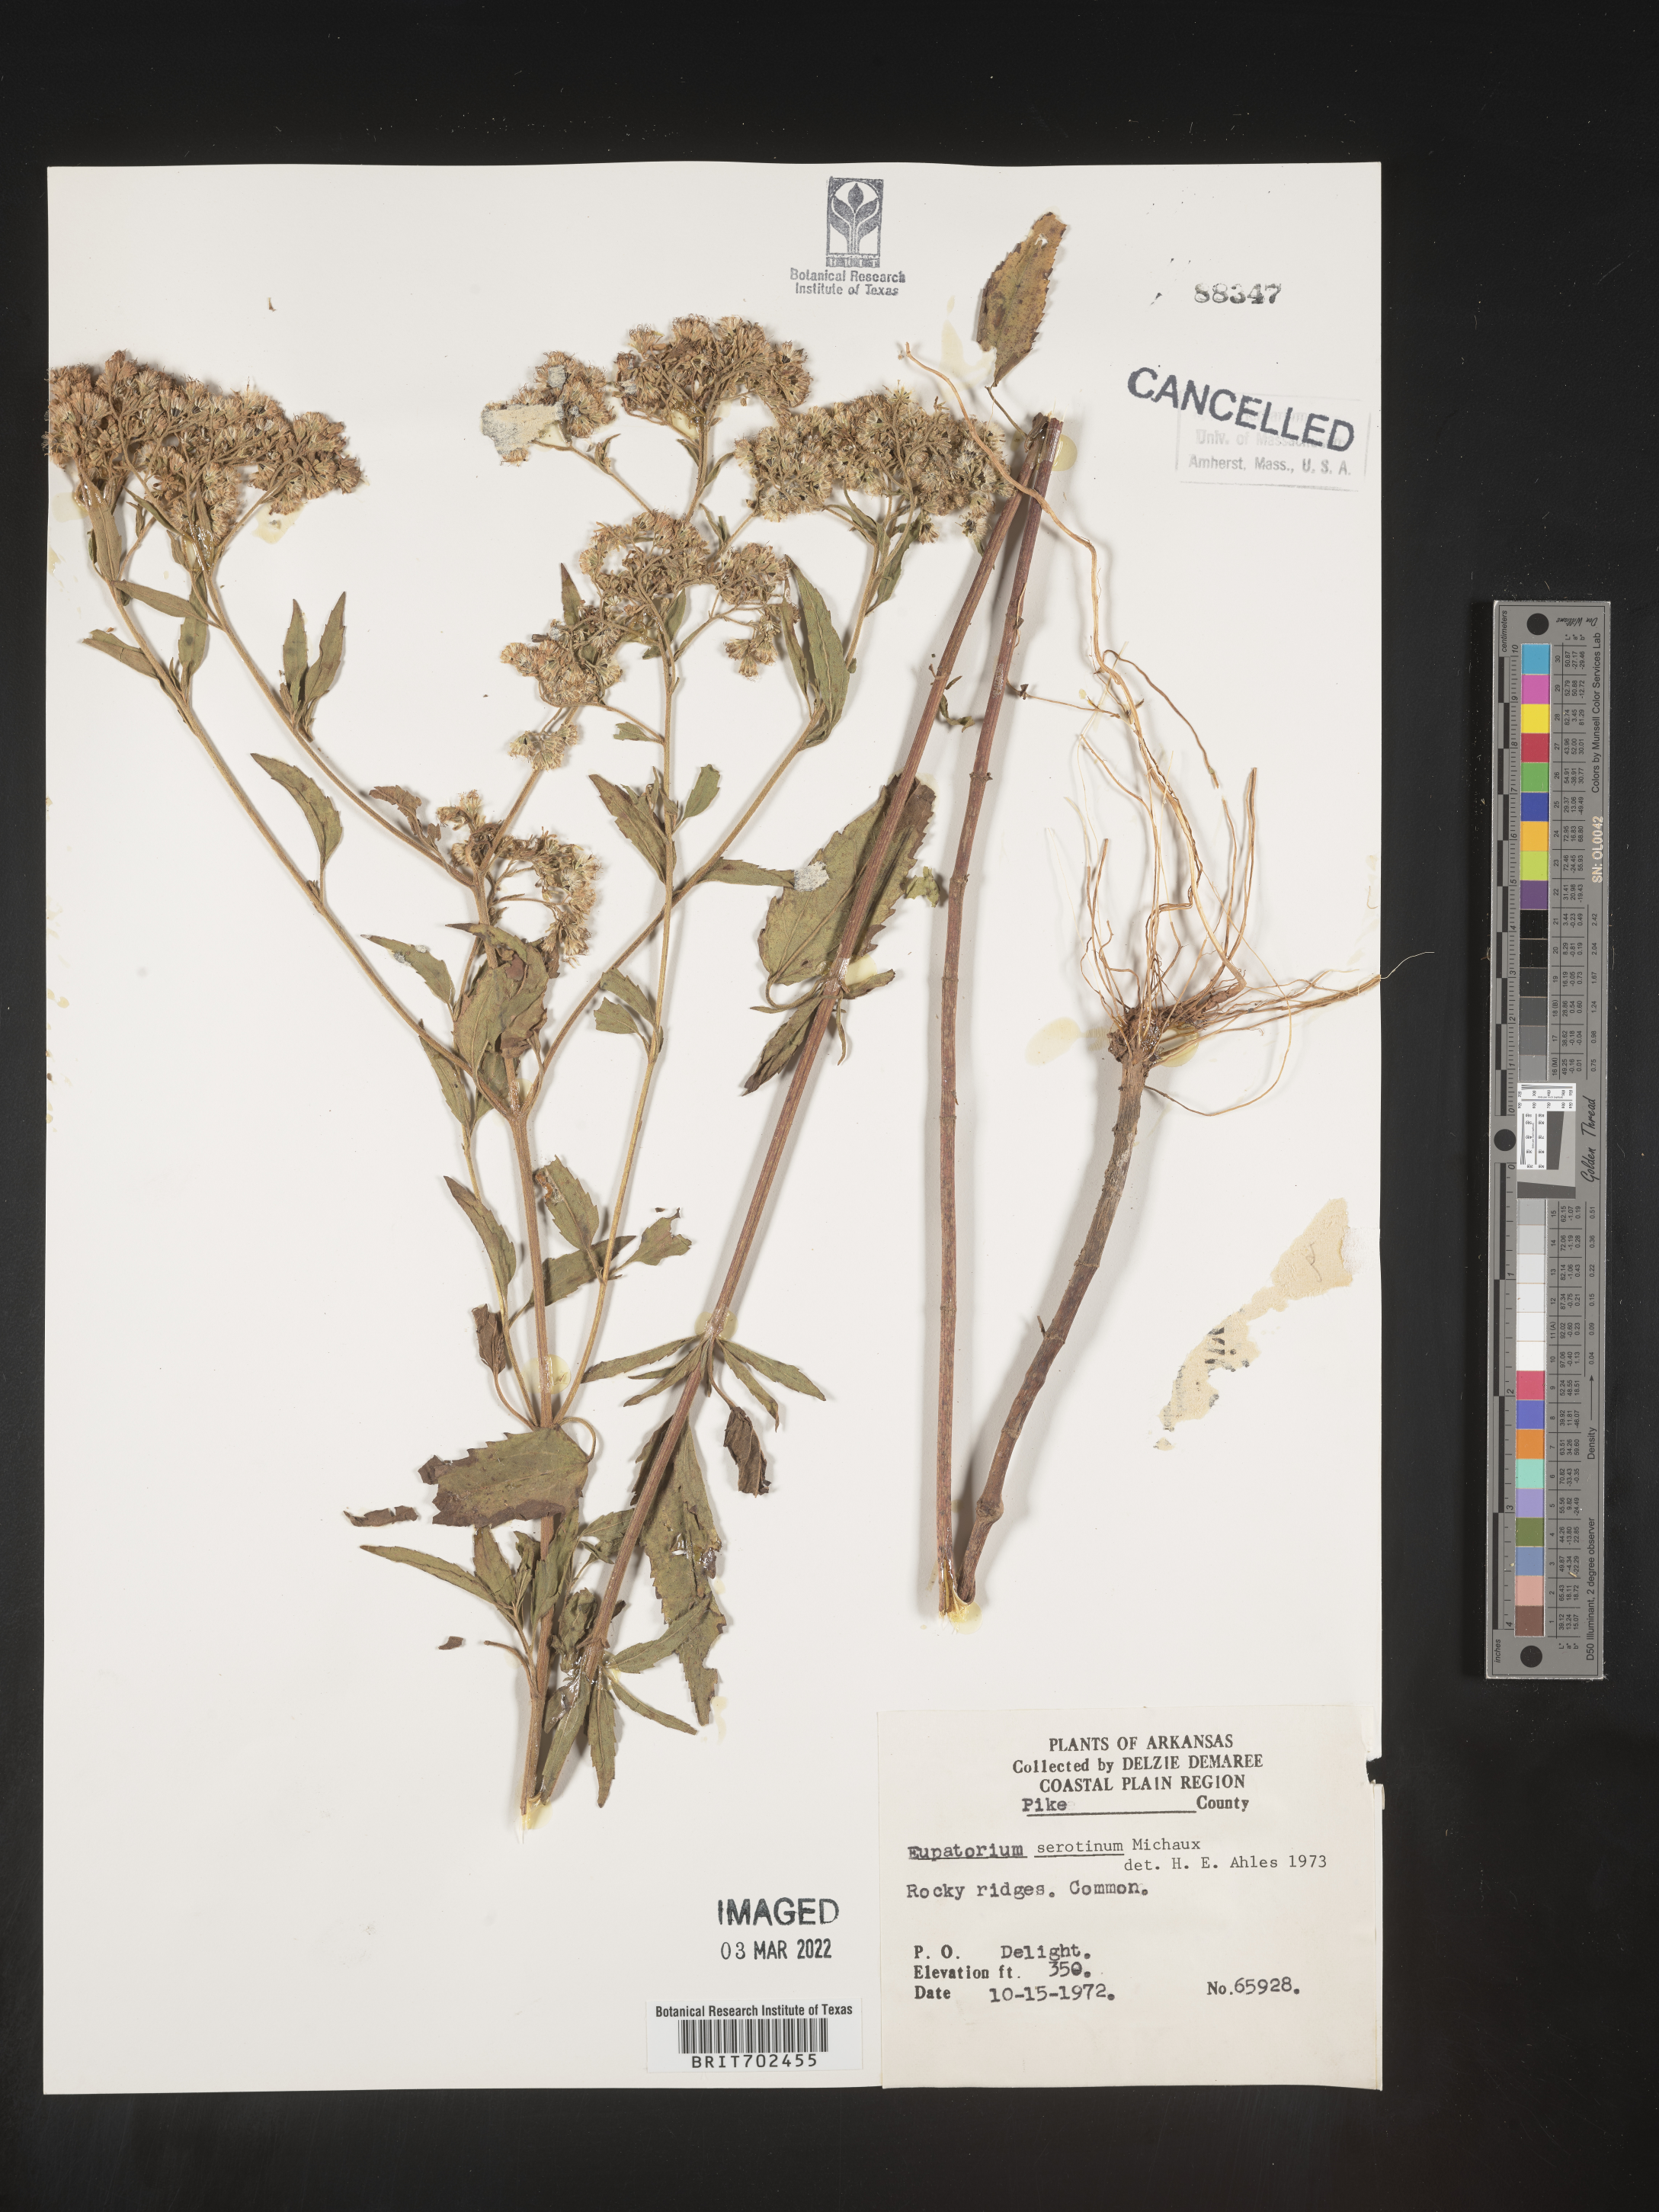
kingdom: Plantae
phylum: Tracheophyta
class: Magnoliopsida
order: Asterales
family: Asteraceae
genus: Eupatorium
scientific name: Eupatorium serotinum
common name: Late boneset
